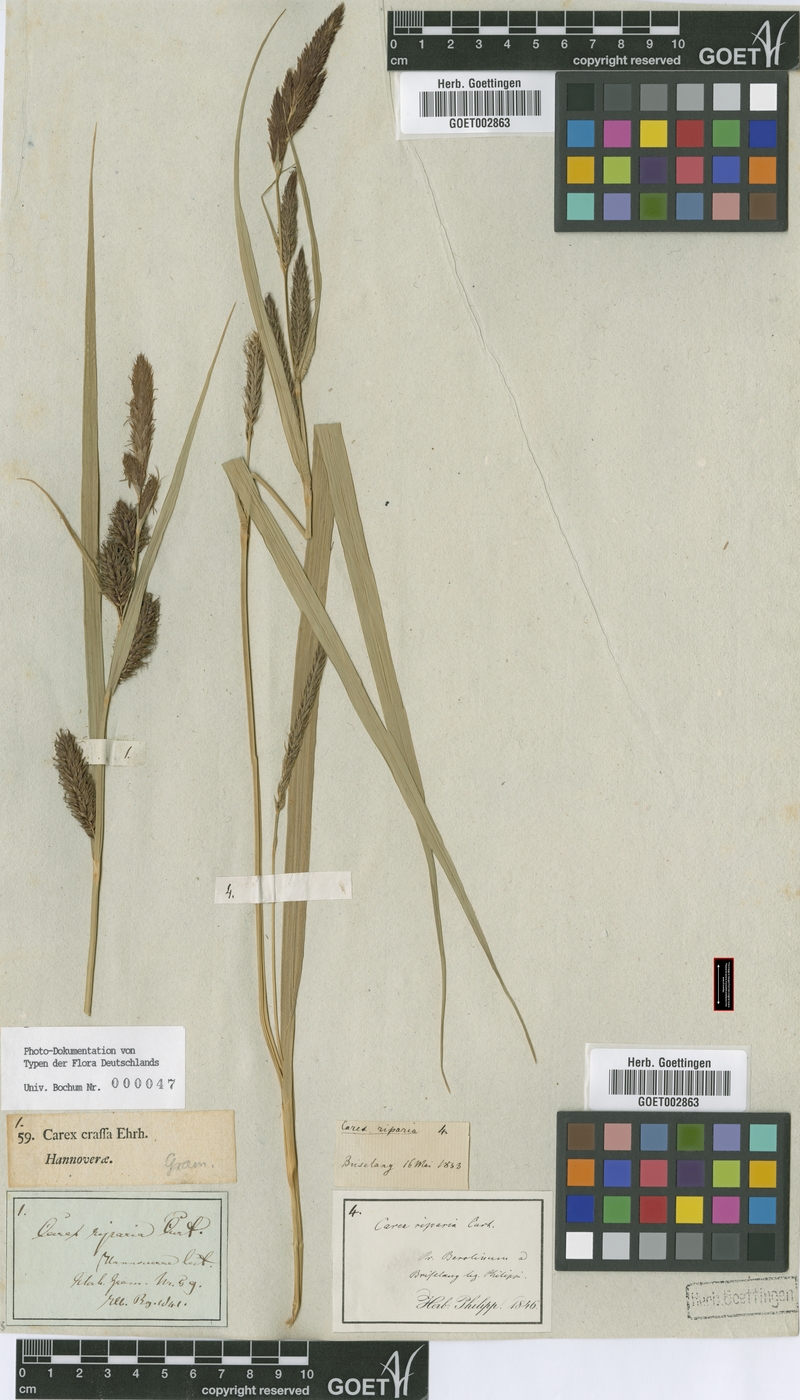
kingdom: Plantae
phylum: Tracheophyta
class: Liliopsida
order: Poales
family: Cyperaceae
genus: Carex
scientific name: Carex riparia
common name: Greater pond-sedge
